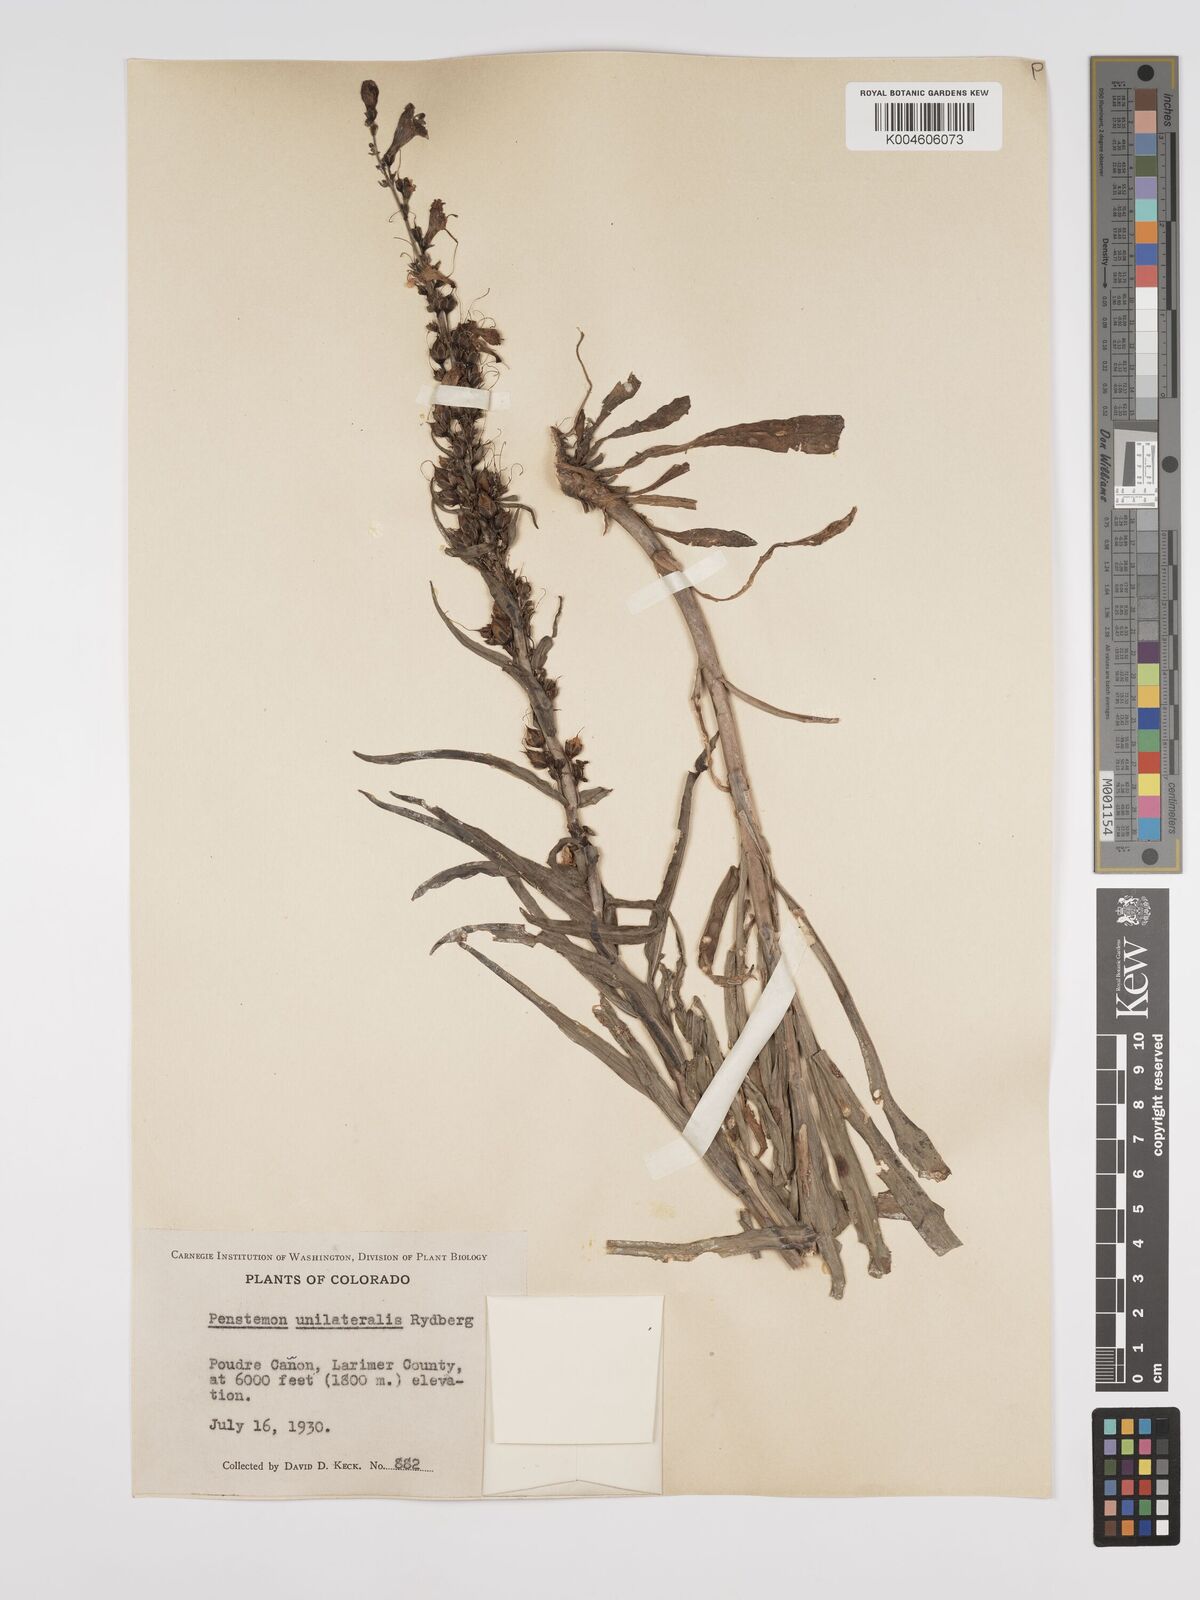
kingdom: Plantae
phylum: Tracheophyta
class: Magnoliopsida
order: Lamiales
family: Plantaginaceae
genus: Penstemon
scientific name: Penstemon unilateralis
